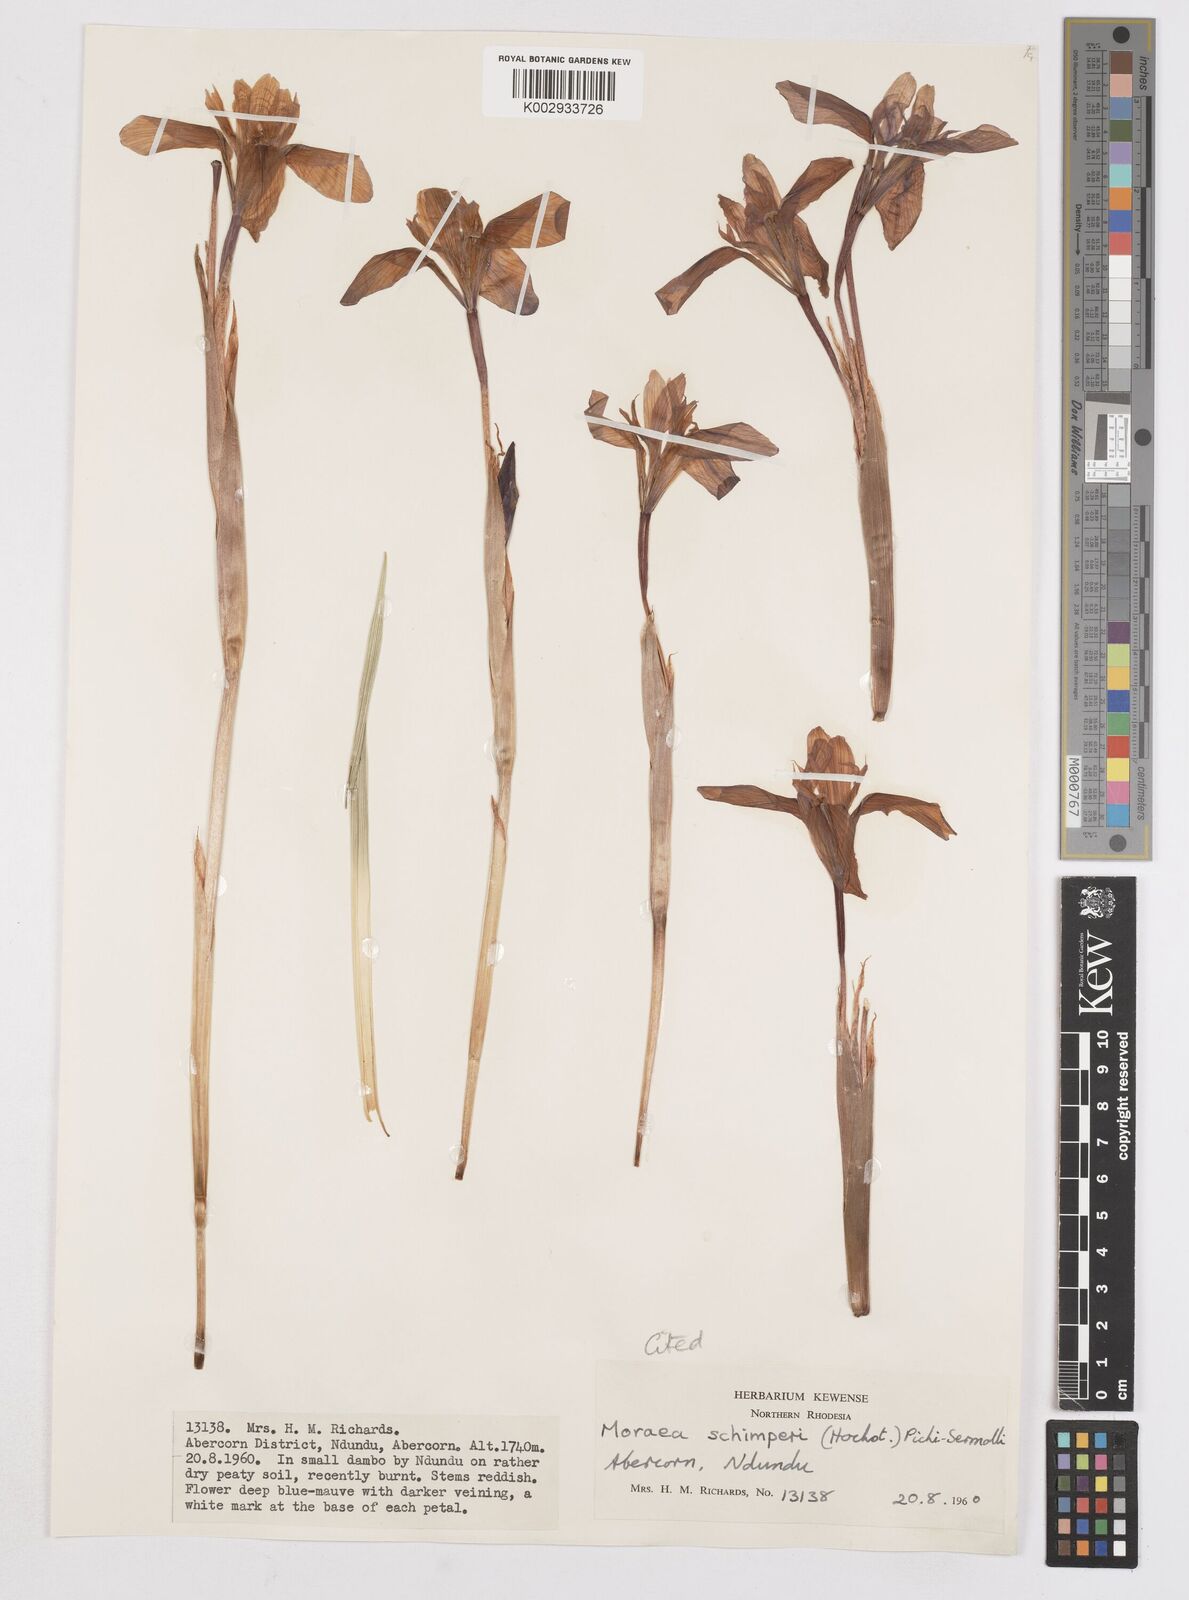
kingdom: Plantae
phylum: Tracheophyta
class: Liliopsida
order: Asparagales
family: Iridaceae
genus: Moraea
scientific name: Moraea schimperi
